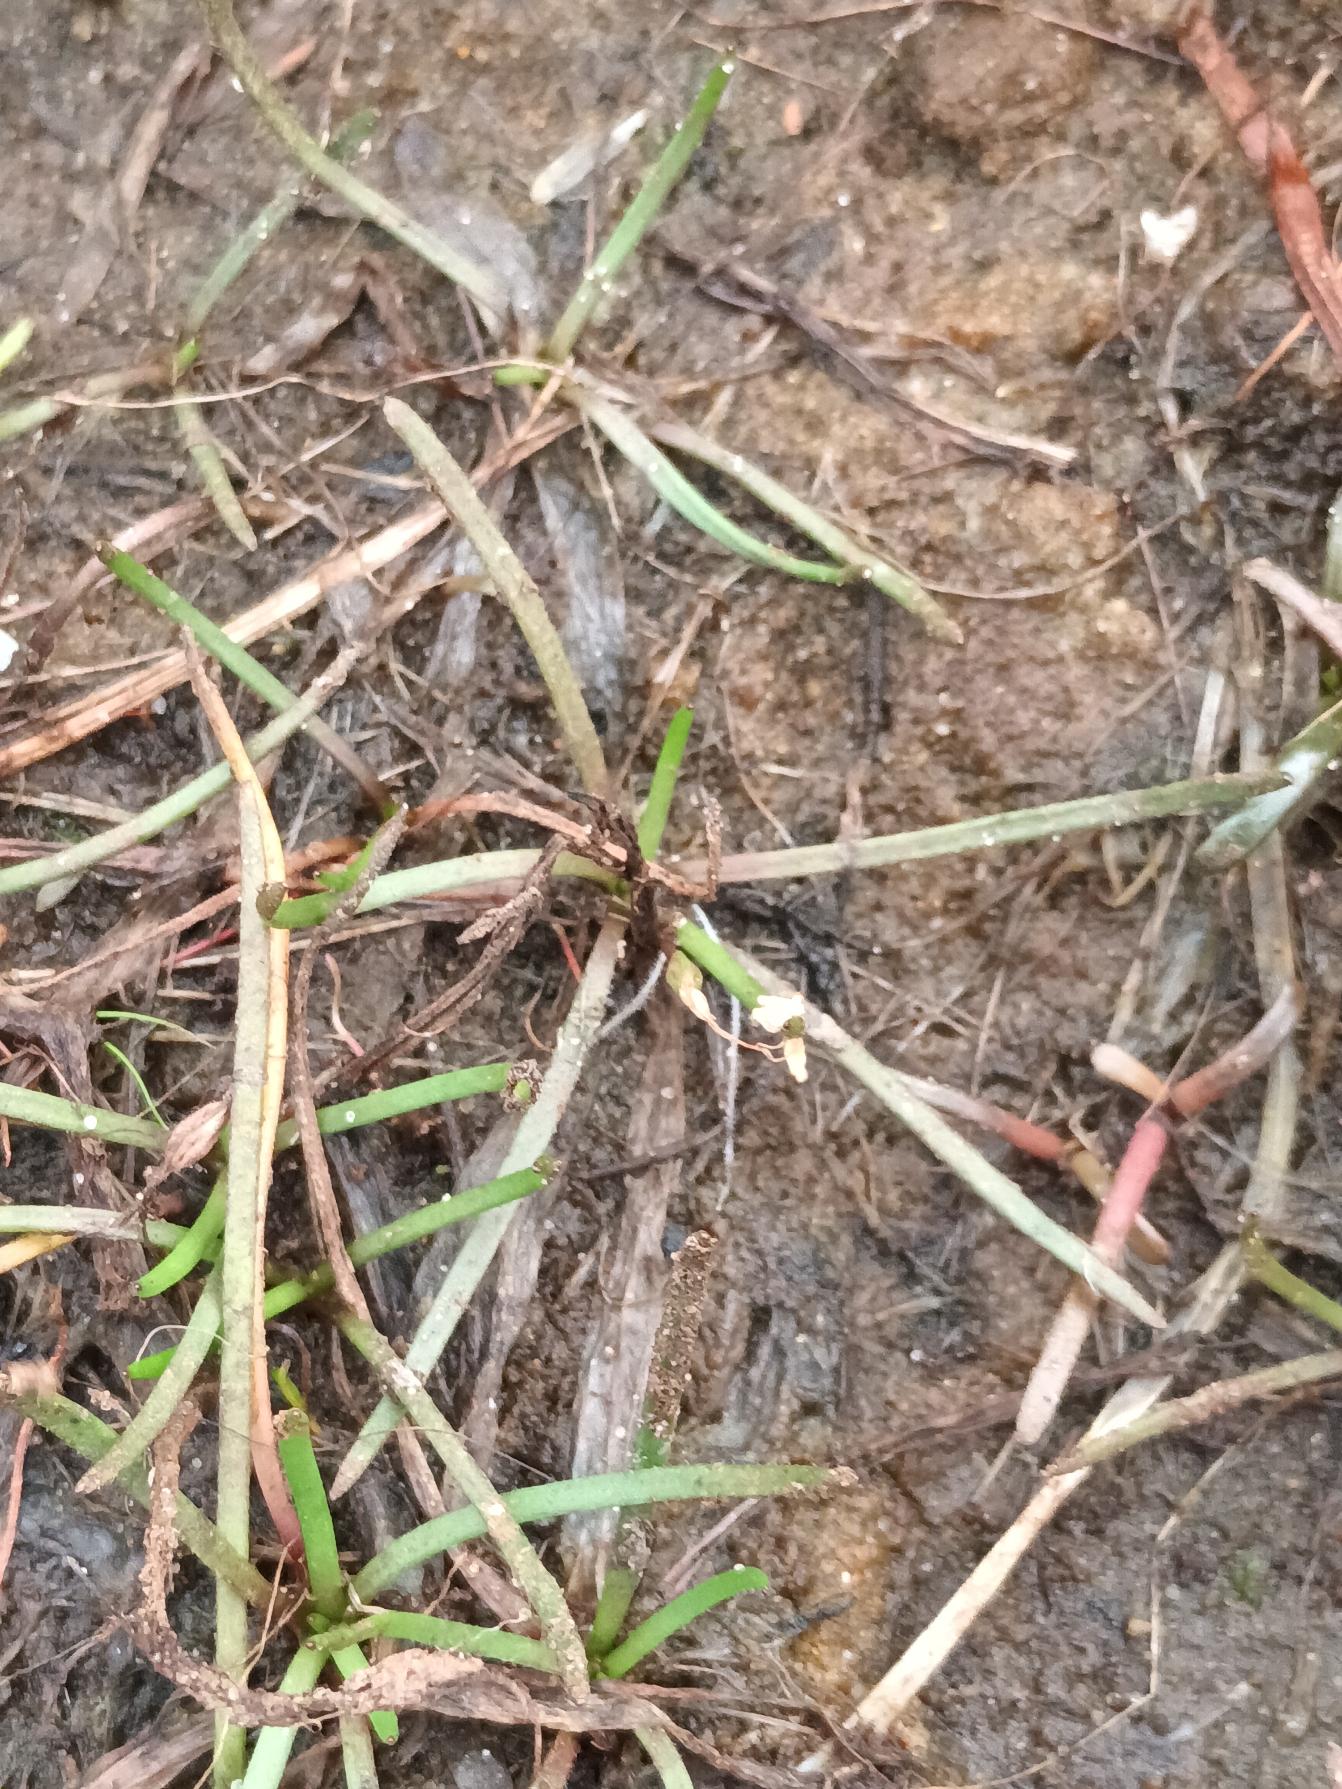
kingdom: Plantae
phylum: Tracheophyta
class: Magnoliopsida
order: Lamiales
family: Plantaginaceae
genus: Littorella
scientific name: Littorella uniflora
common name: Strandbo
